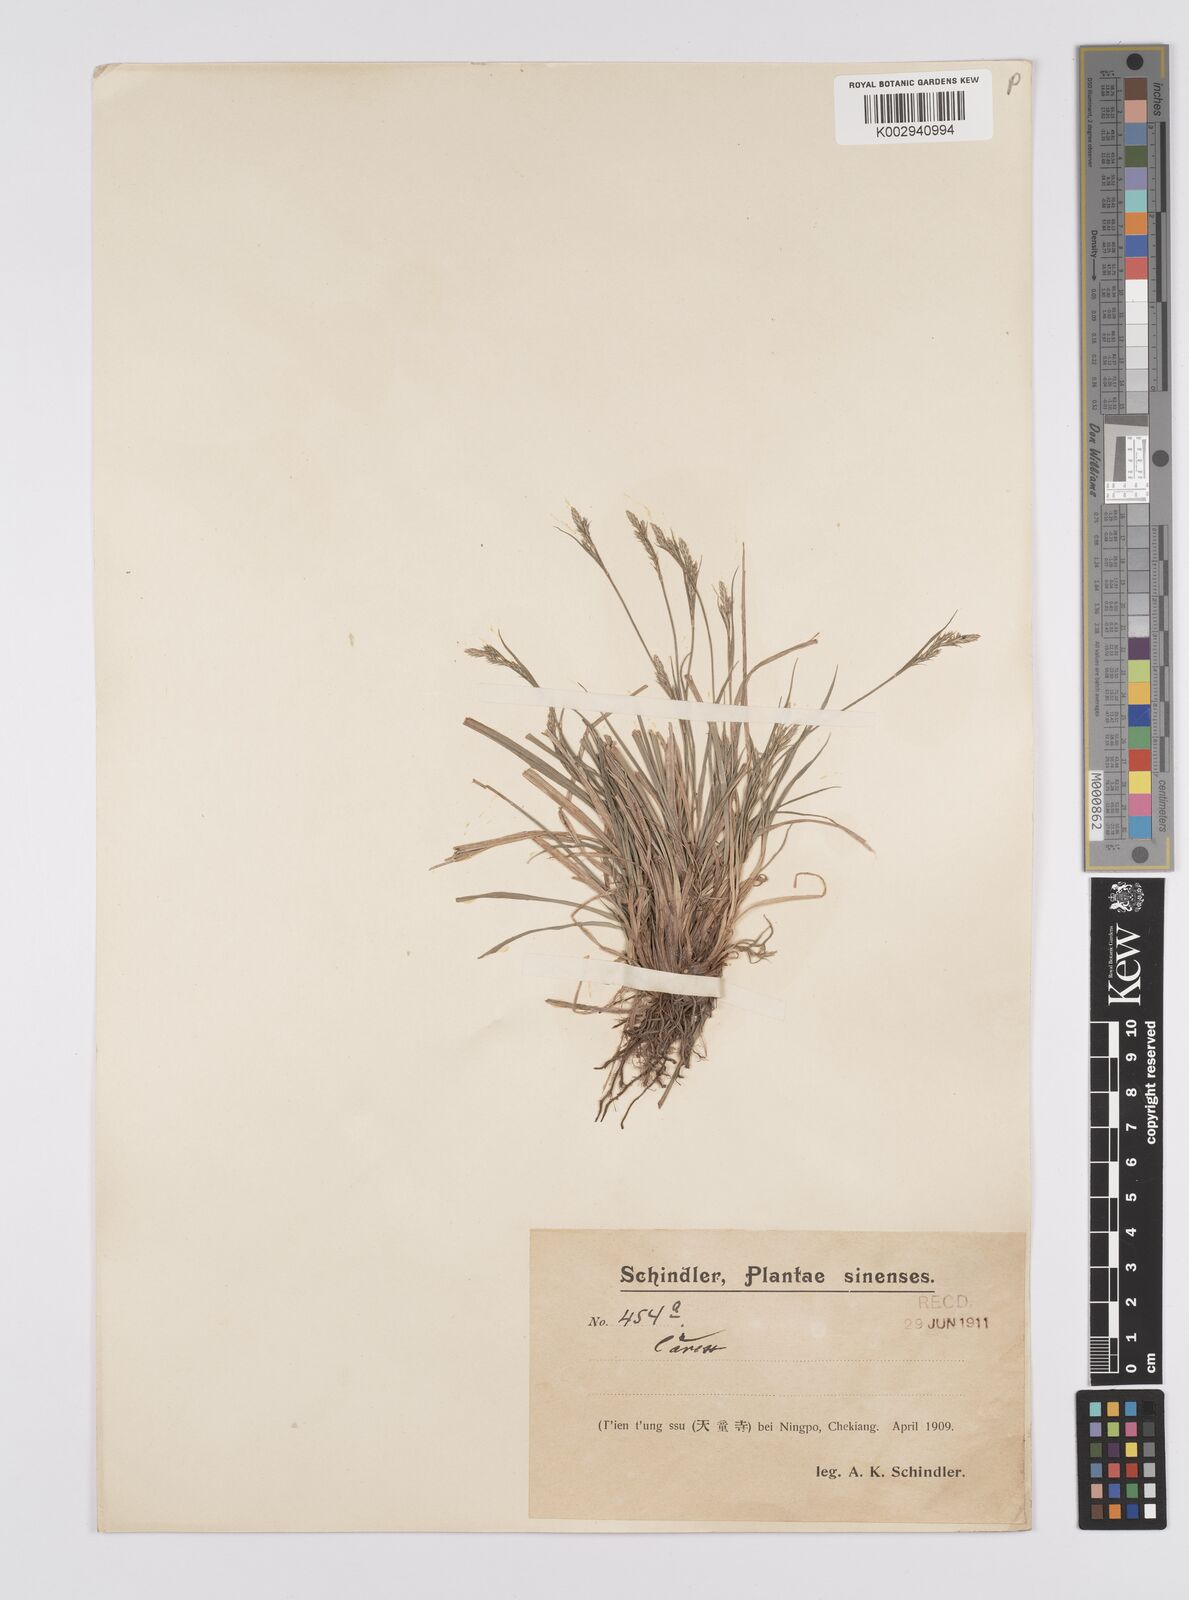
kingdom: Plantae
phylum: Tracheophyta
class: Liliopsida
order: Poales
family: Cyperaceae
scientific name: Cyperaceae
